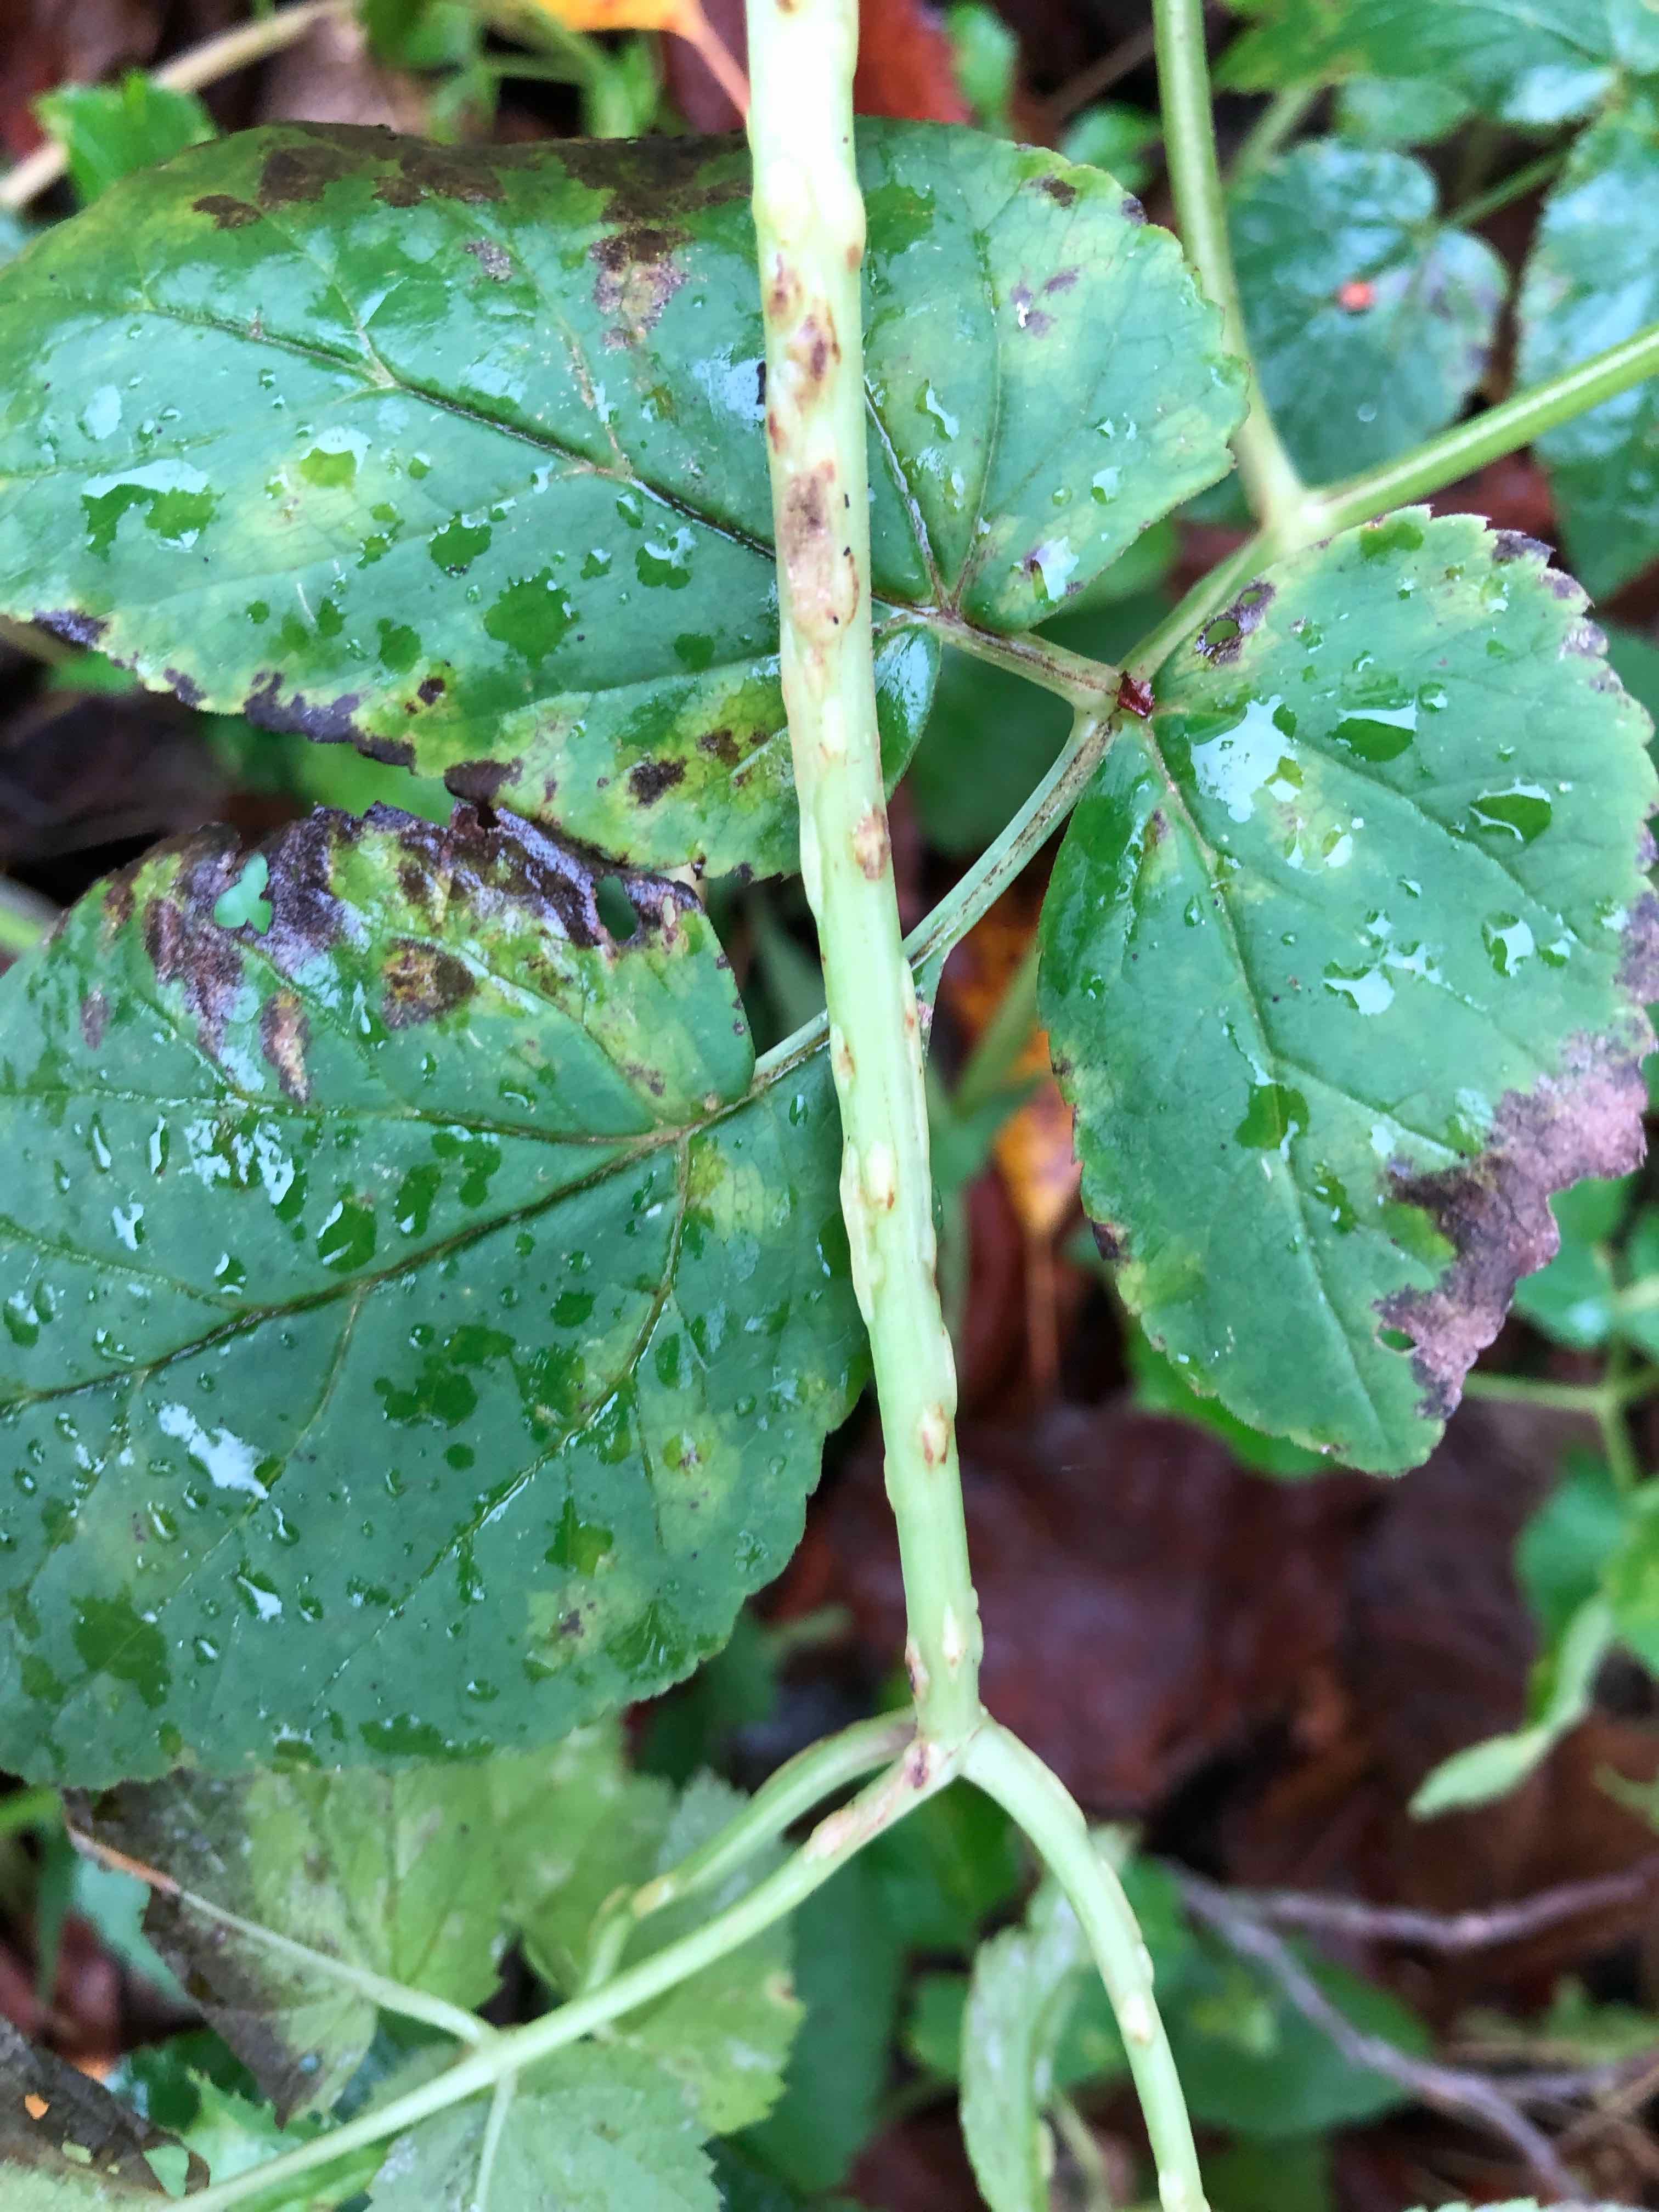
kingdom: Fungi
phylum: Ascomycota
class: Taphrinomycetes
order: Taphrinales
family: Taphrinaceae
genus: Protomyces
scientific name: Protomyces macrosporus
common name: skvalderkål-vablesæk
